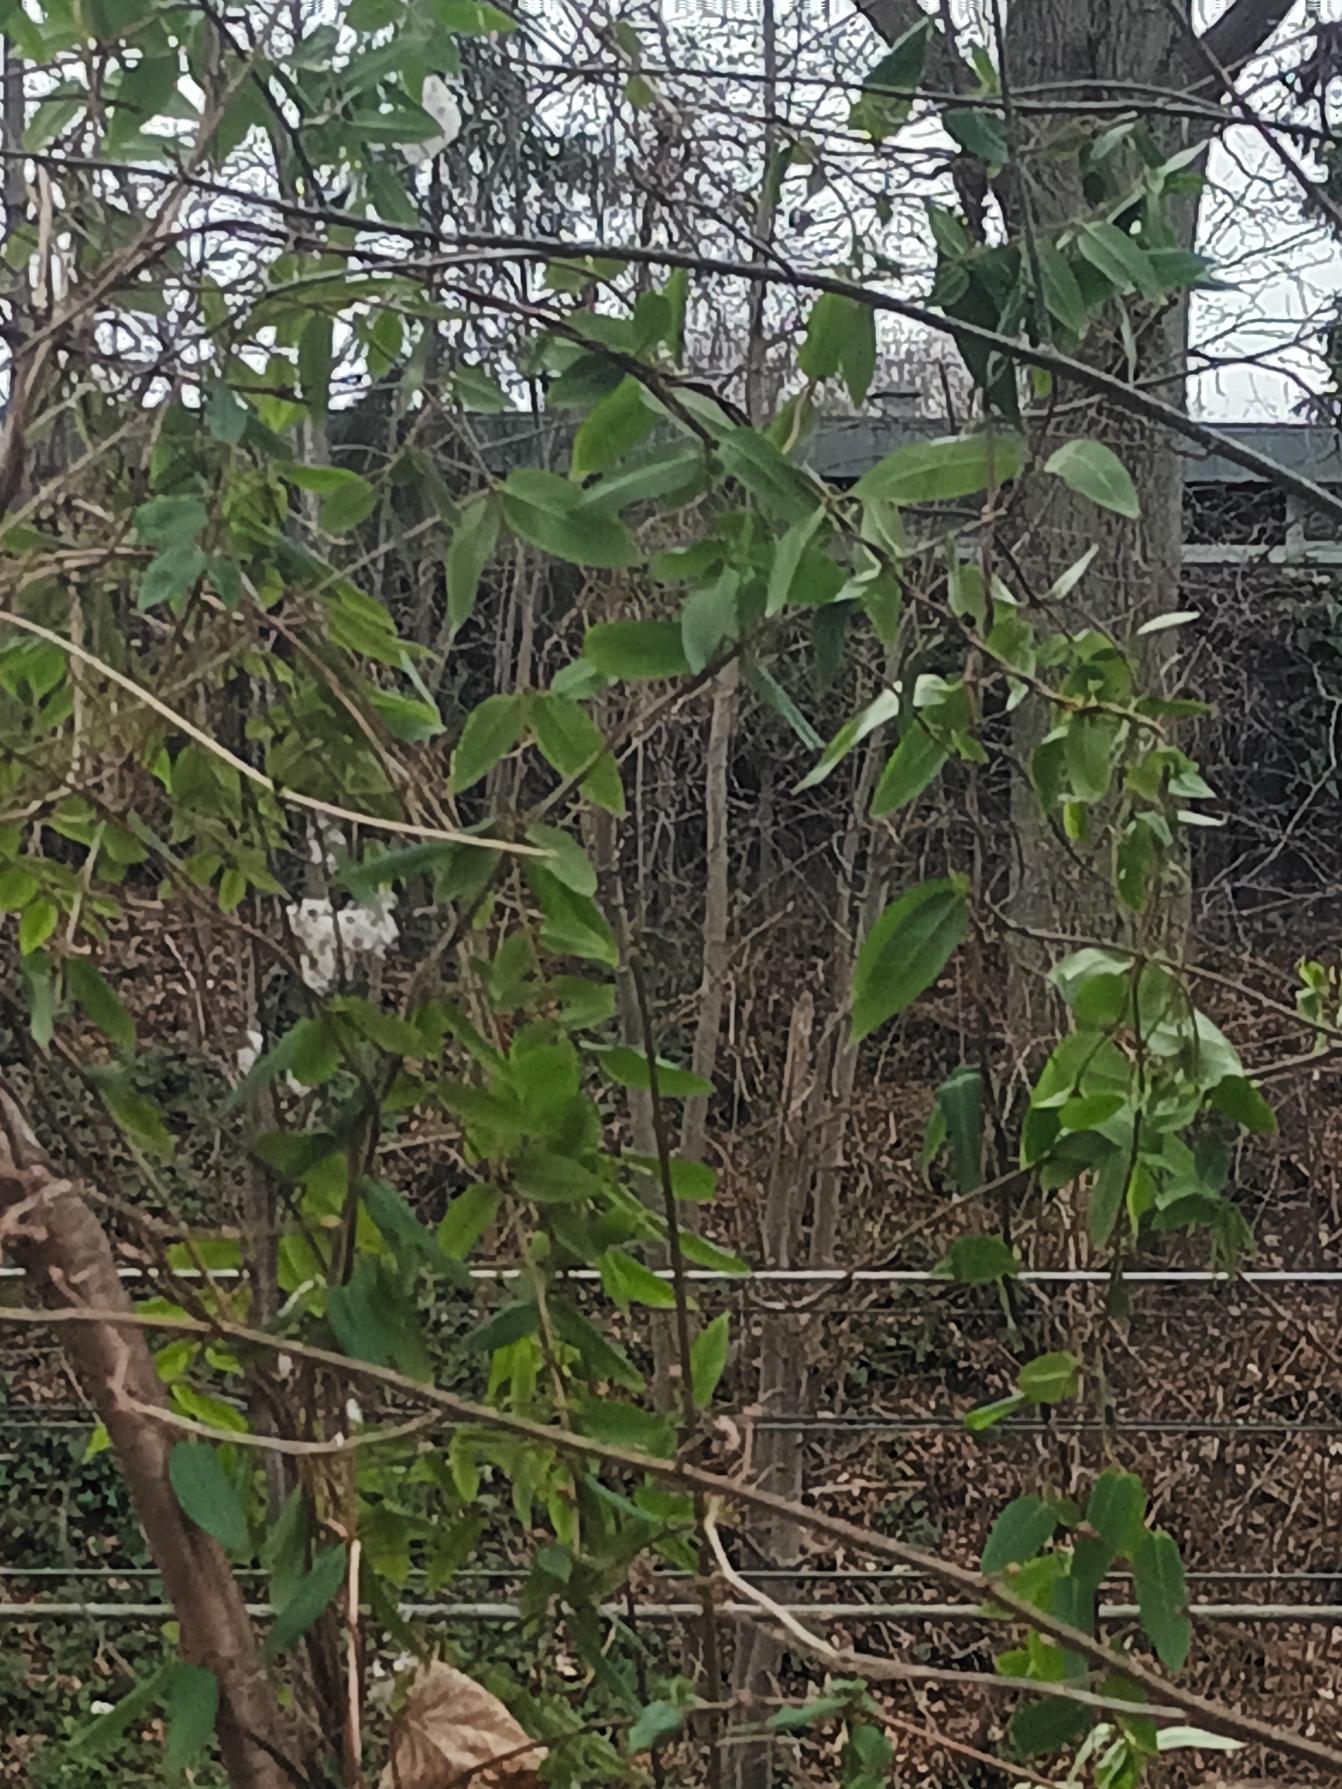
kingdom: Plantae
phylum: Tracheophyta
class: Magnoliopsida
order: Dipsacales
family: Caprifoliaceae
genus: Lonicera
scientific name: Lonicera acuminata
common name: Henrys gedeblad
